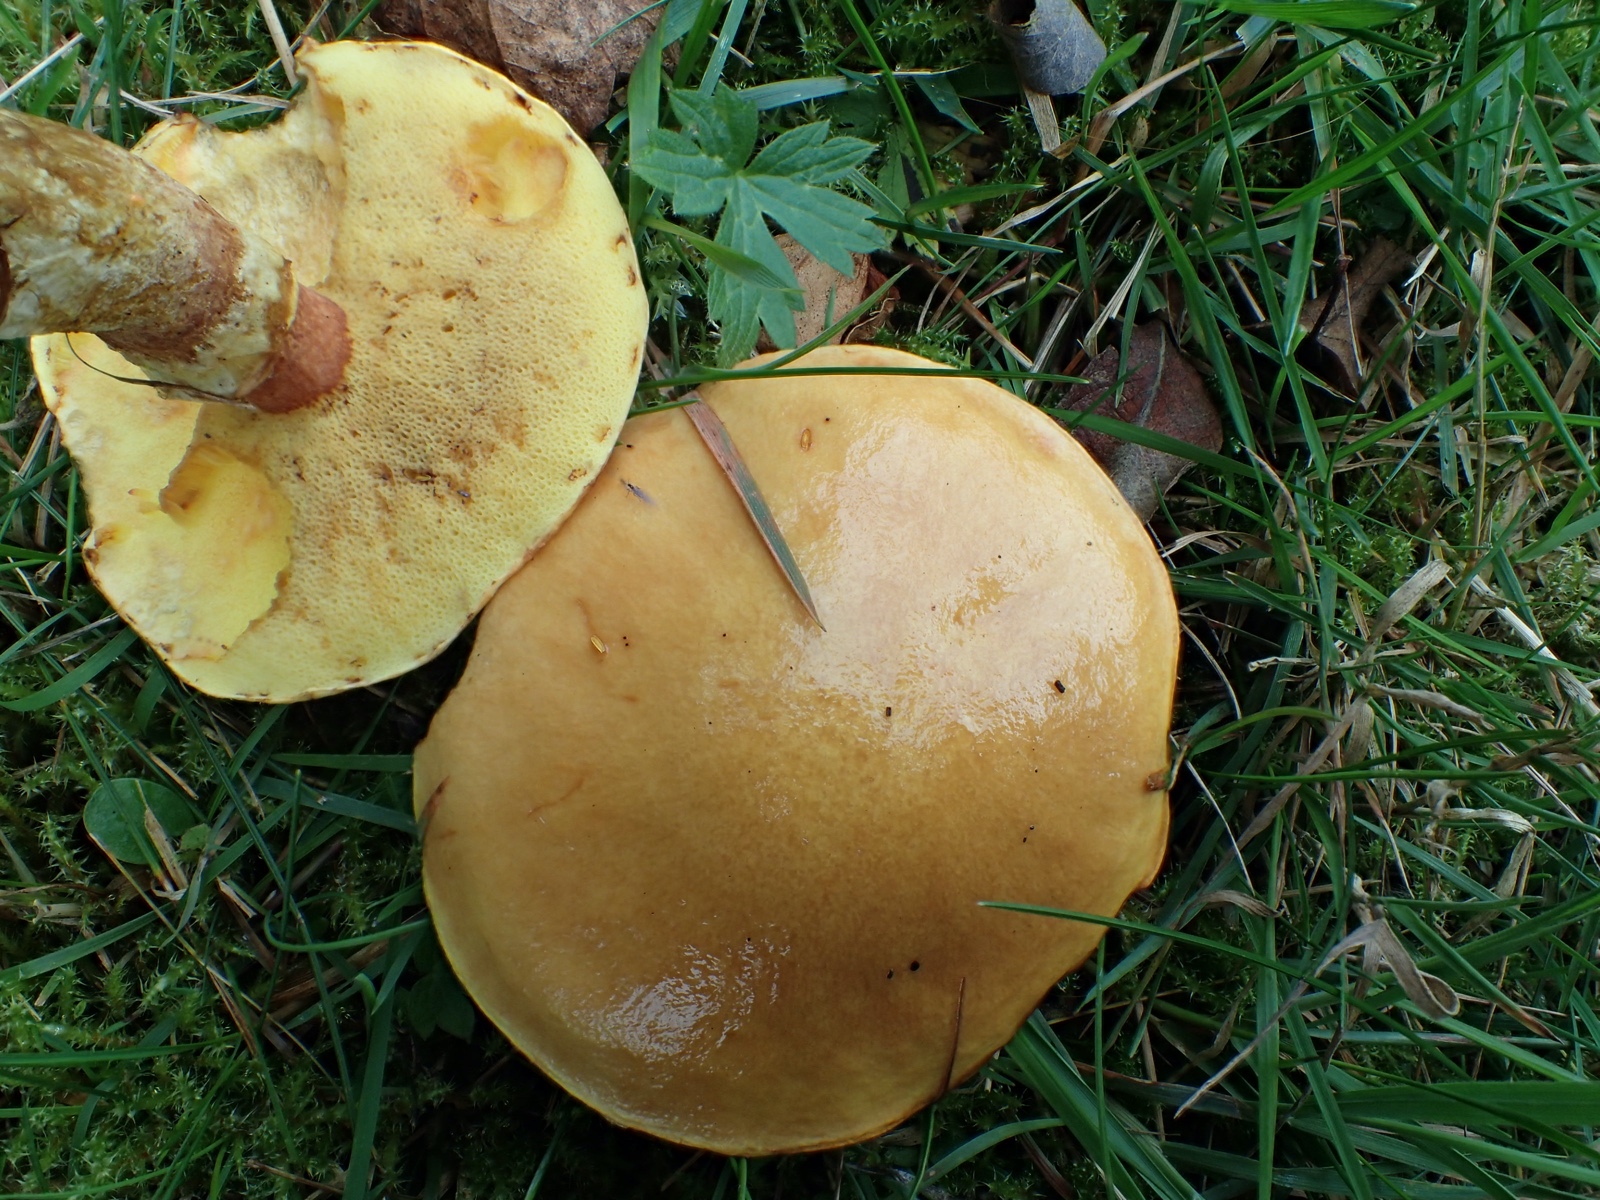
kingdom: Fungi
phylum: Basidiomycota
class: Agaricomycetes
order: Boletales
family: Suillaceae
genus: Suillus
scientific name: Suillus grevillei
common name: lærke-slimrørhat
